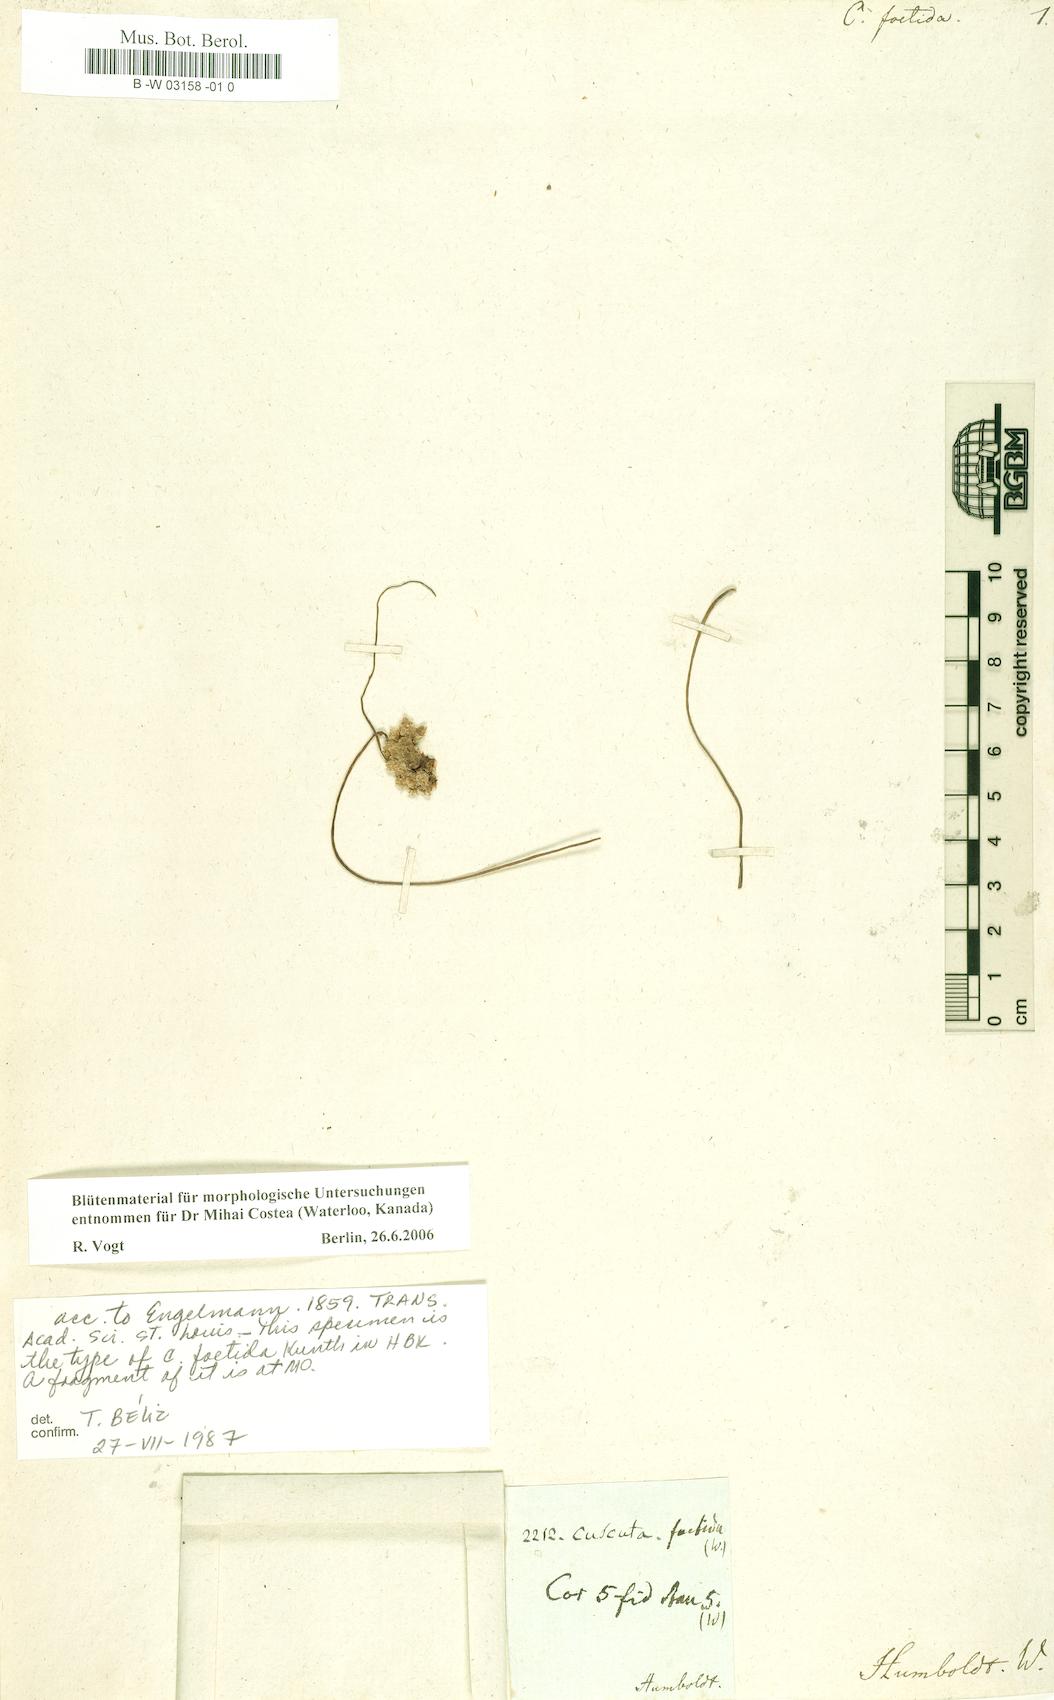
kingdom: Plantae
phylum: Tracheophyta
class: Magnoliopsida
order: Solanales
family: Convolvulaceae
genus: Cuscuta
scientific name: Cuscuta foetida
